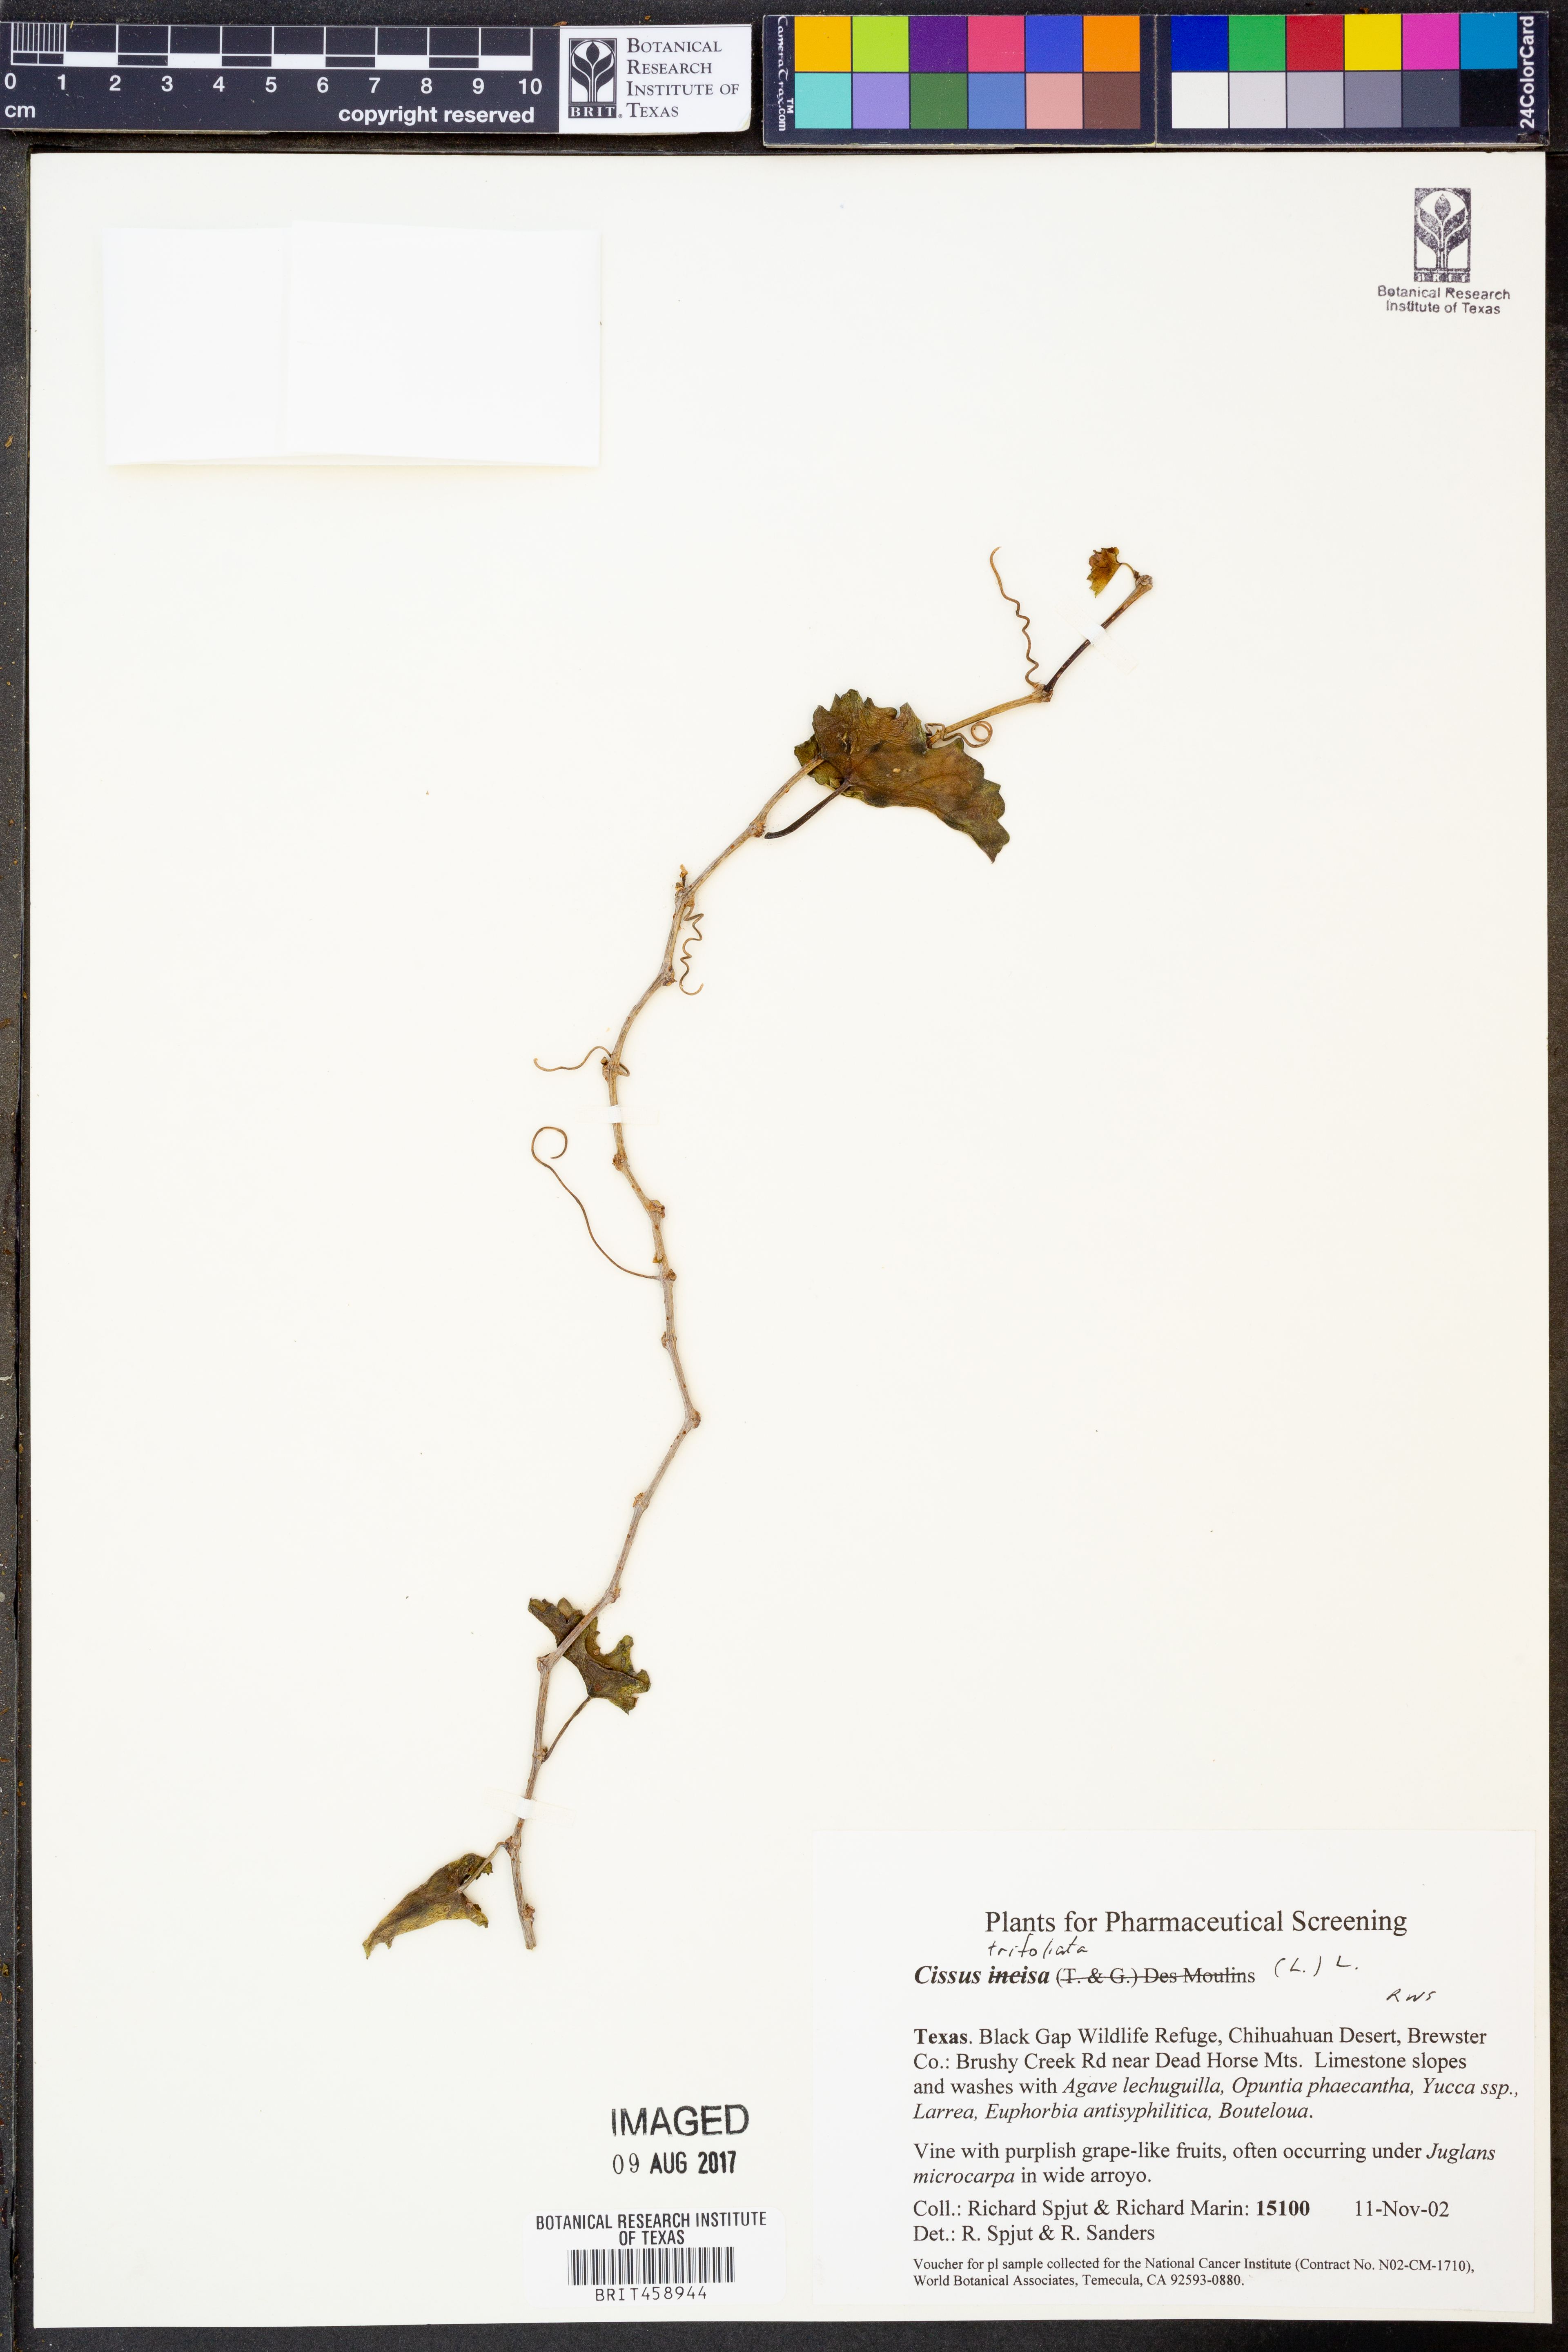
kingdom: Plantae
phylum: Tracheophyta
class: Magnoliopsida
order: Vitales
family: Vitaceae
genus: Cissus
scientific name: Cissus trifoliata
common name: Vine-sorrel
